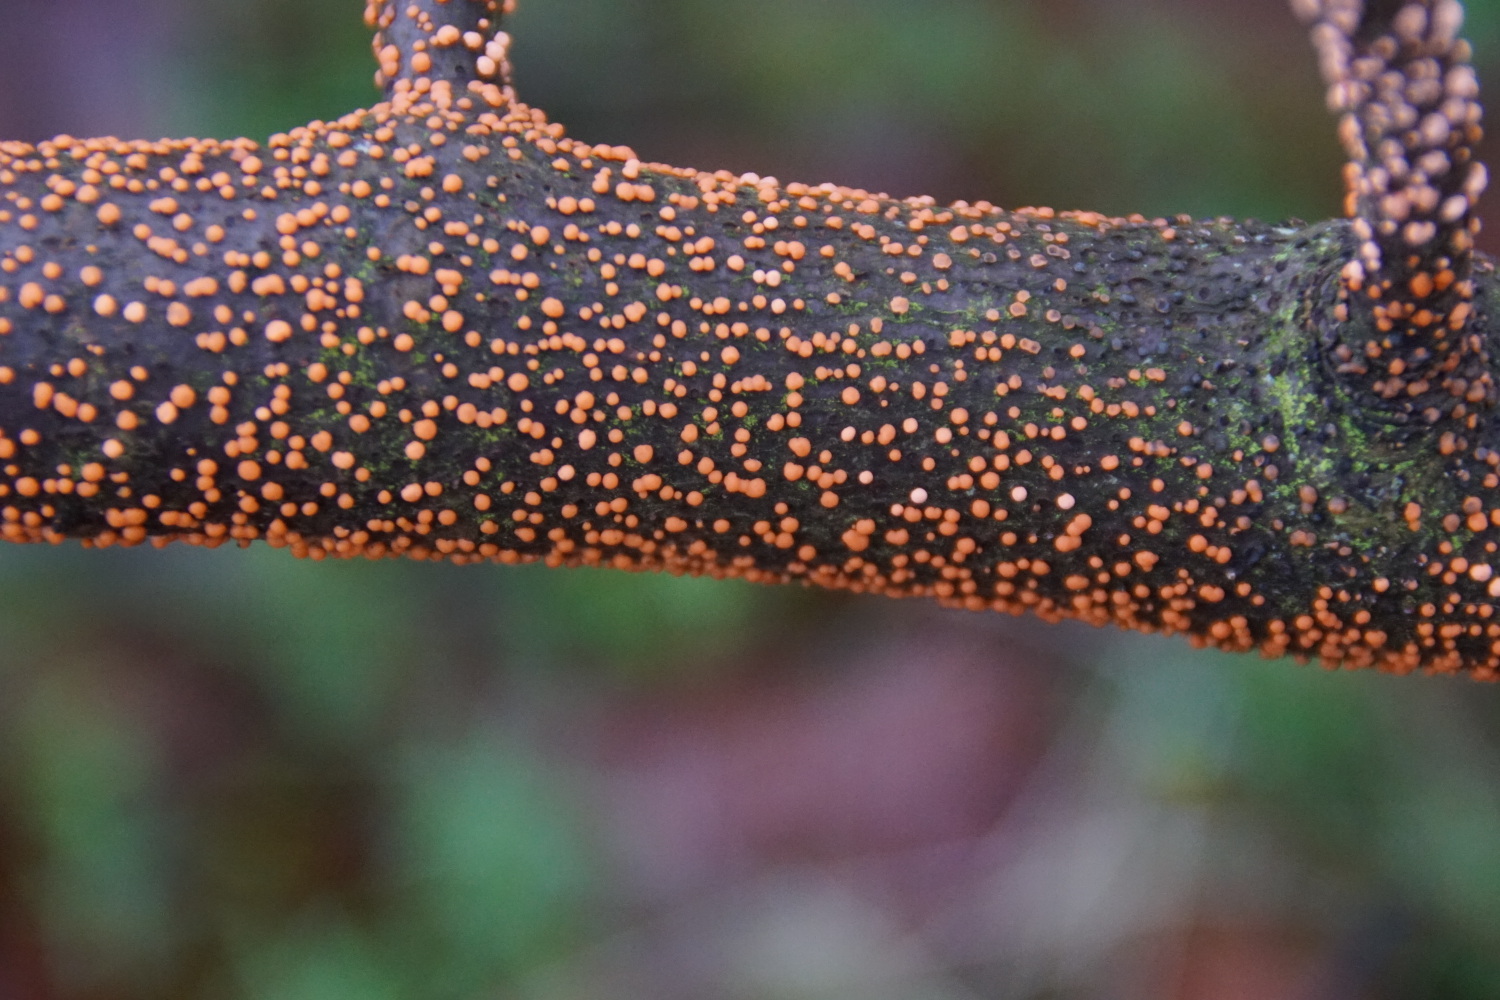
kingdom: Fungi
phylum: Ascomycota
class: Sordariomycetes
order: Hypocreales
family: Nectriaceae
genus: Nectria
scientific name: Nectria cinnabarina
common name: almindelig cinnobersvamp
